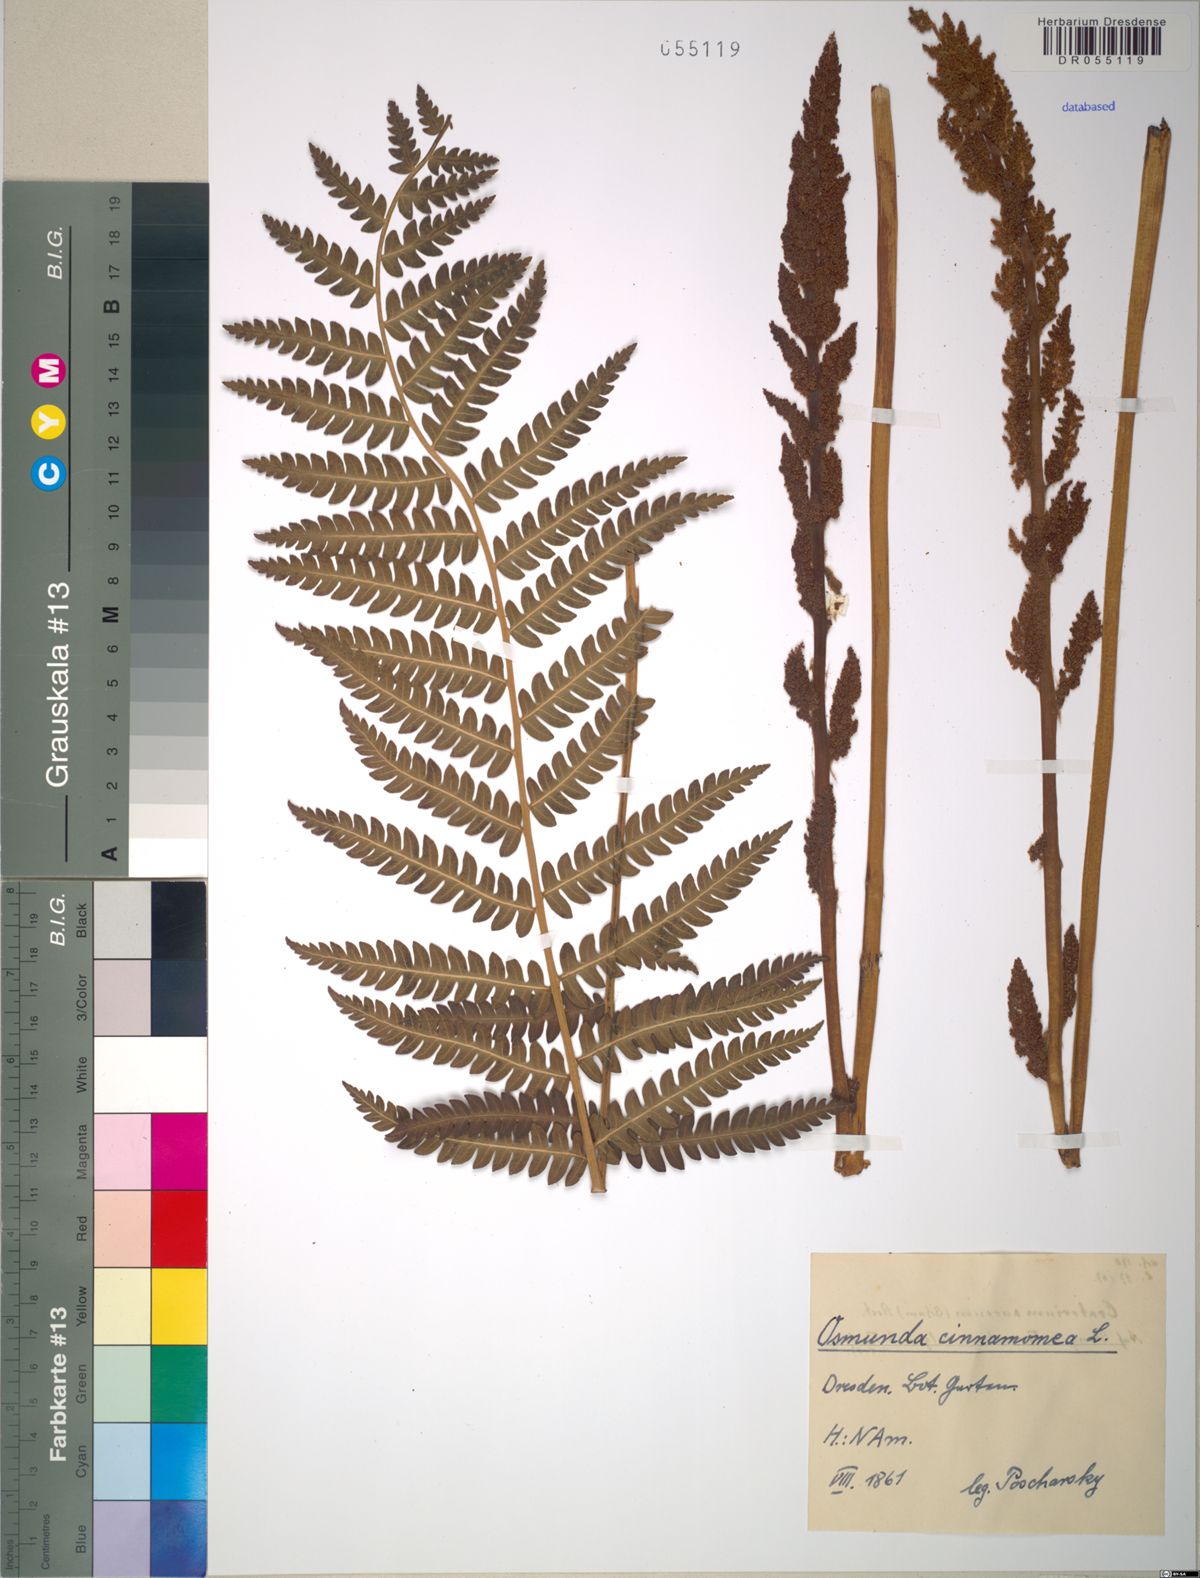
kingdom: Plantae
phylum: Tracheophyta
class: Polypodiopsida
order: Osmundales
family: Osmundaceae
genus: Osmundastrum
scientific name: Osmundastrum cinnamomeum
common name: Cinnamon fern
